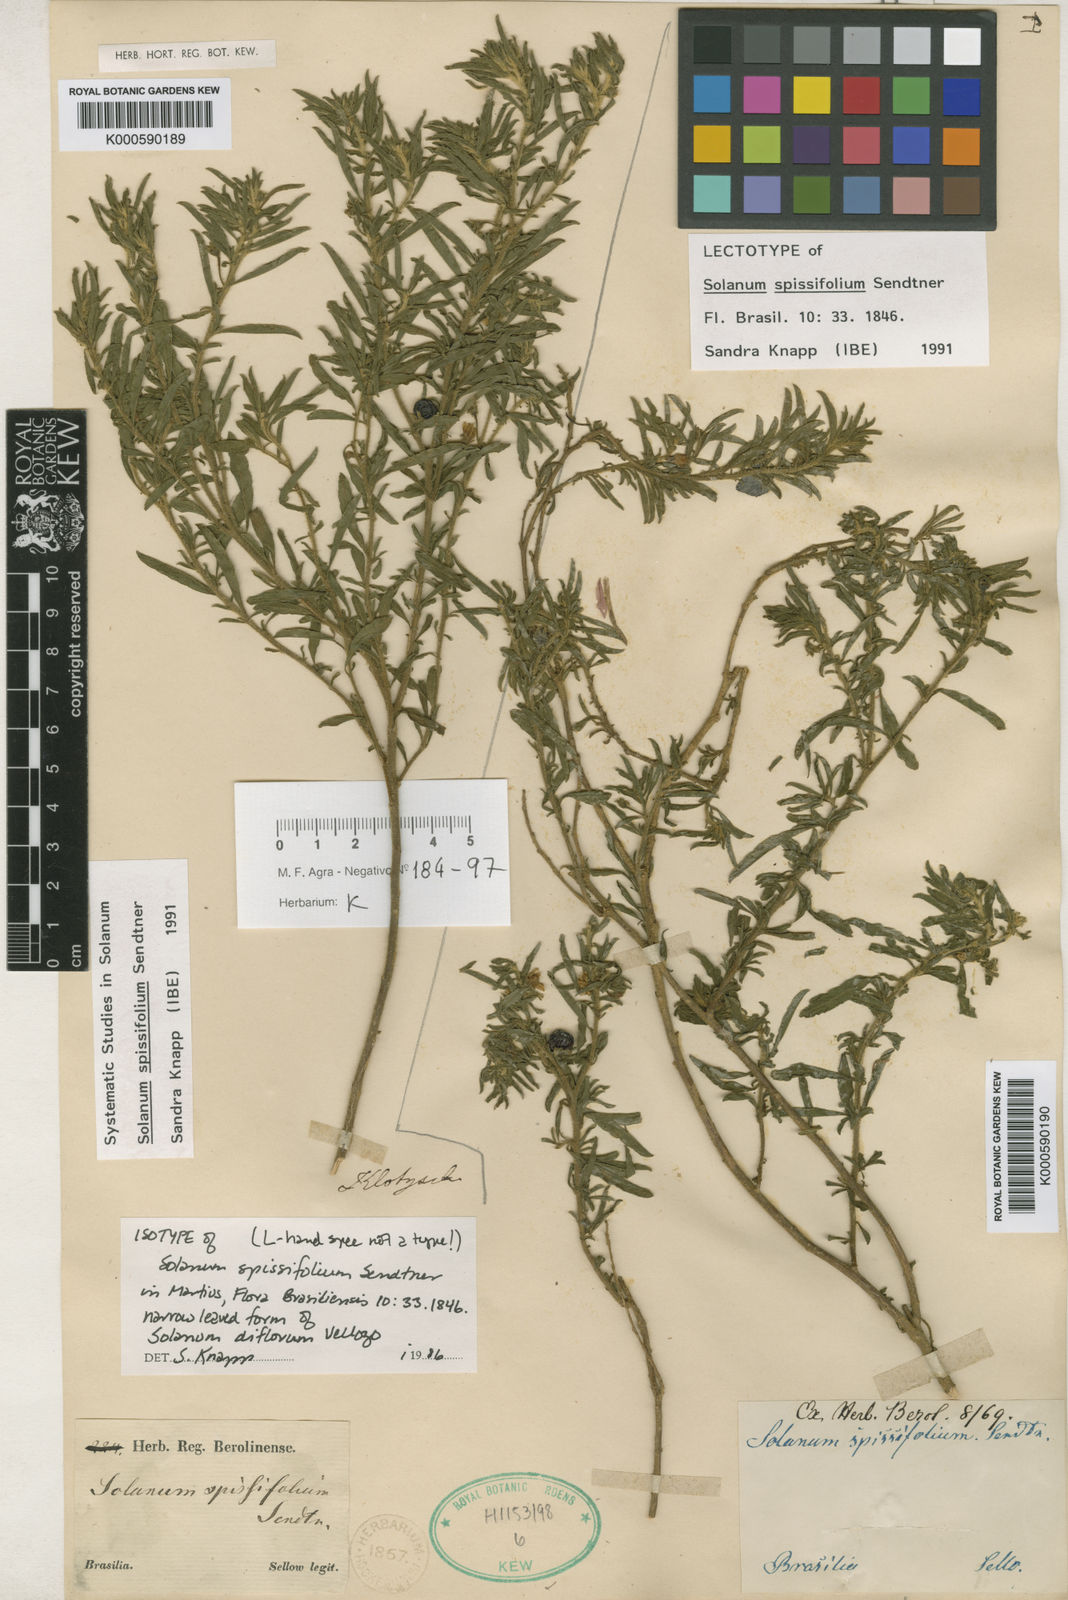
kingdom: Plantae
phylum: Tracheophyta
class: Magnoliopsida
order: Solanales
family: Solanaceae
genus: Solanum
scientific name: Solanum spissifolium
